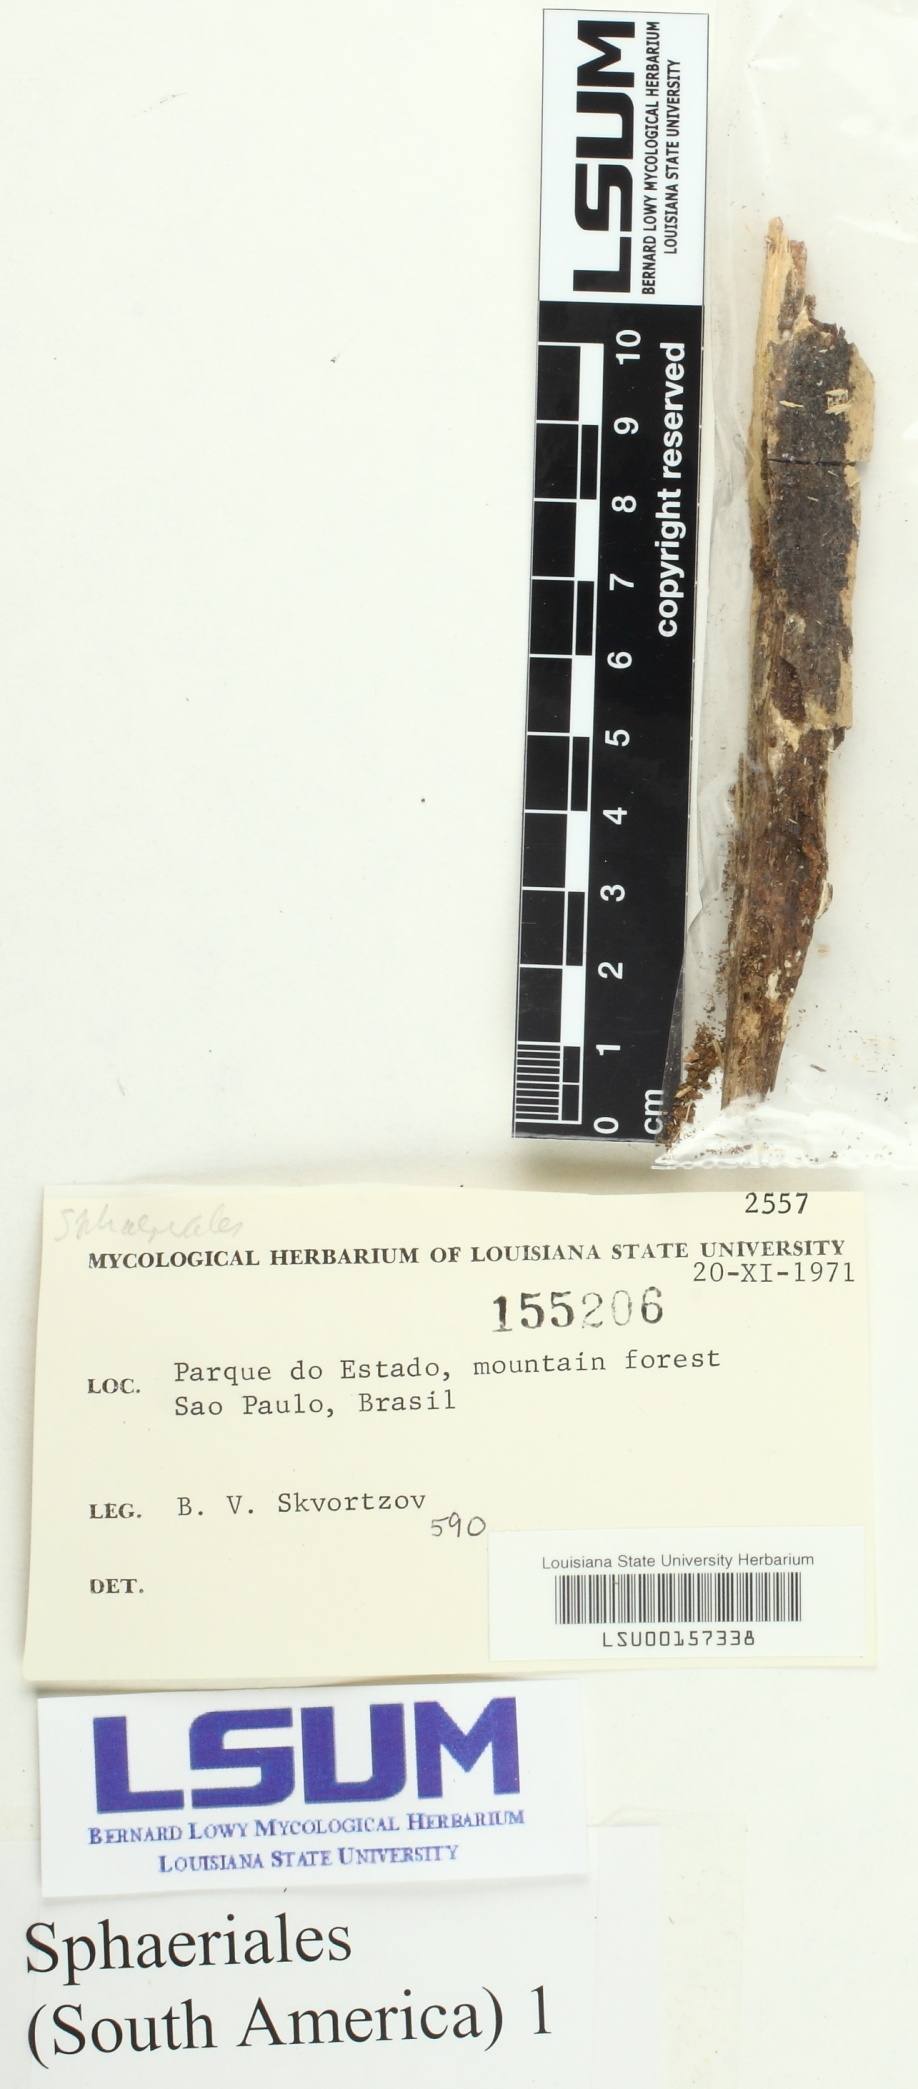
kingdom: Fungi
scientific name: Fungi
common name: Fungi
